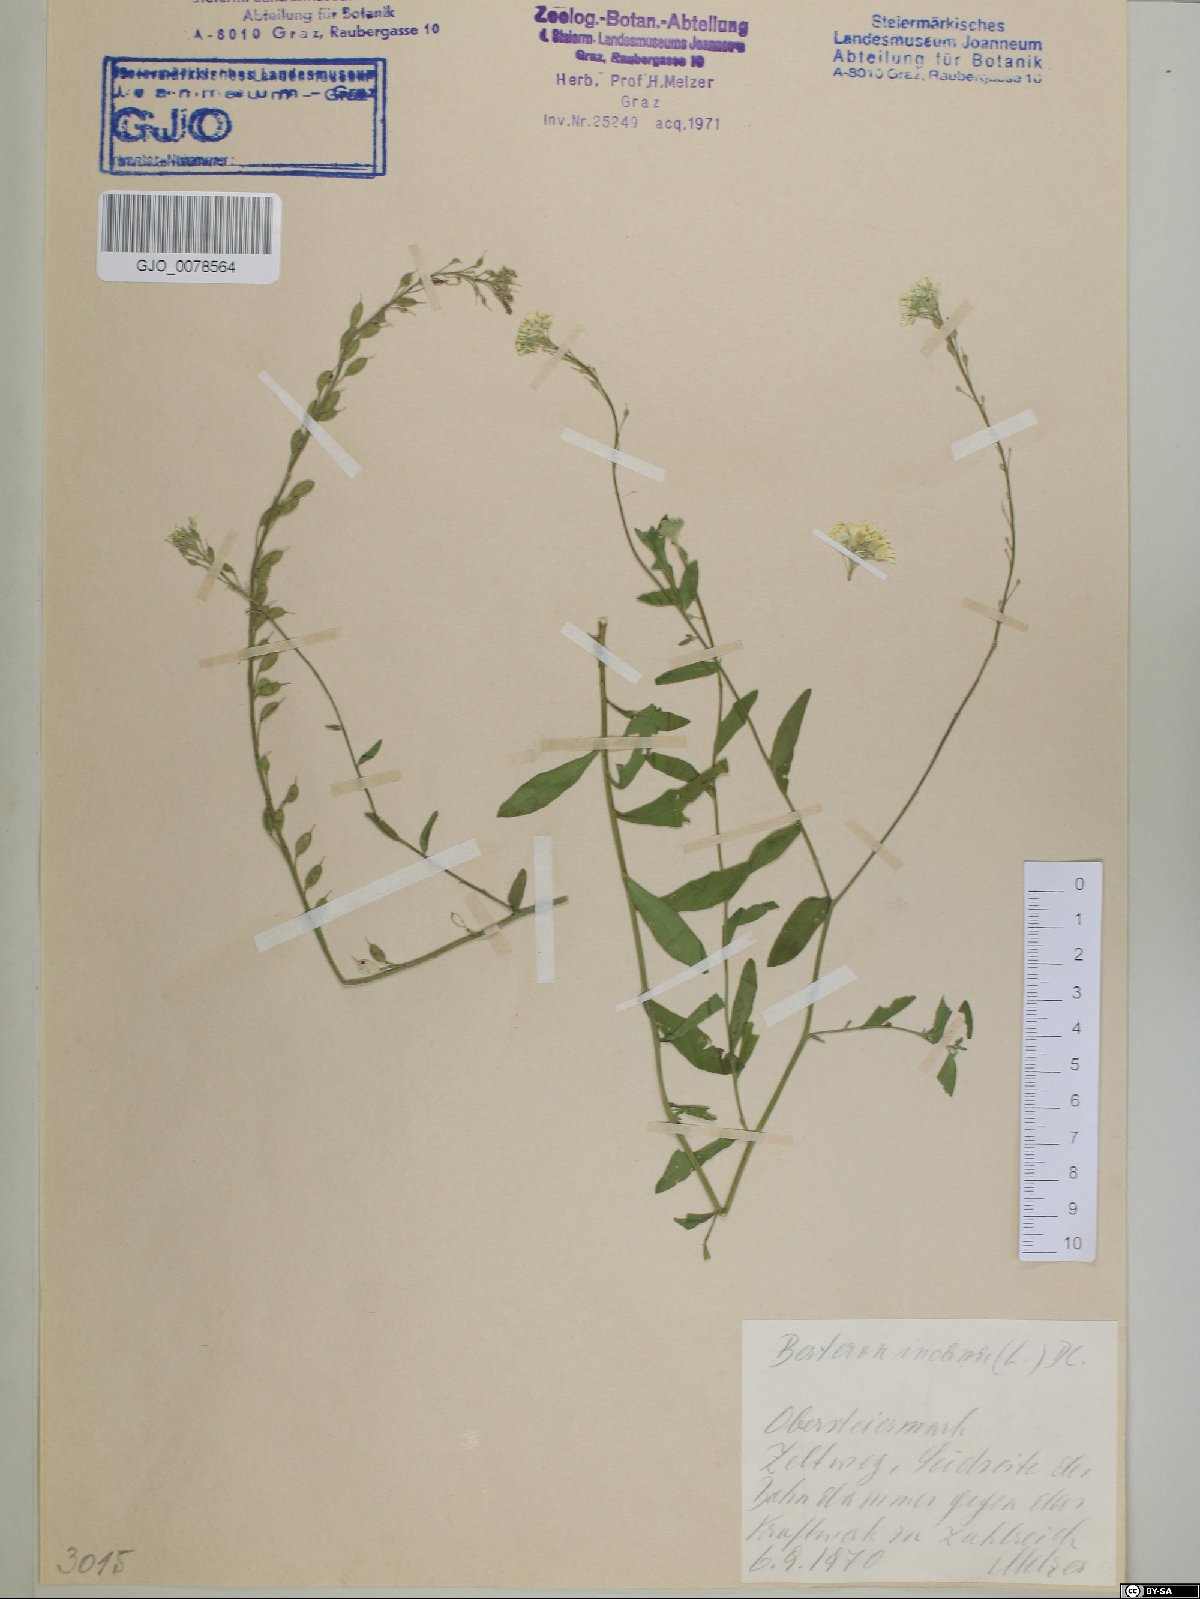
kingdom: Plantae
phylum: Tracheophyta
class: Magnoliopsida
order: Brassicales
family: Brassicaceae
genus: Berteroa
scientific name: Berteroa incana
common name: Hoary alison
